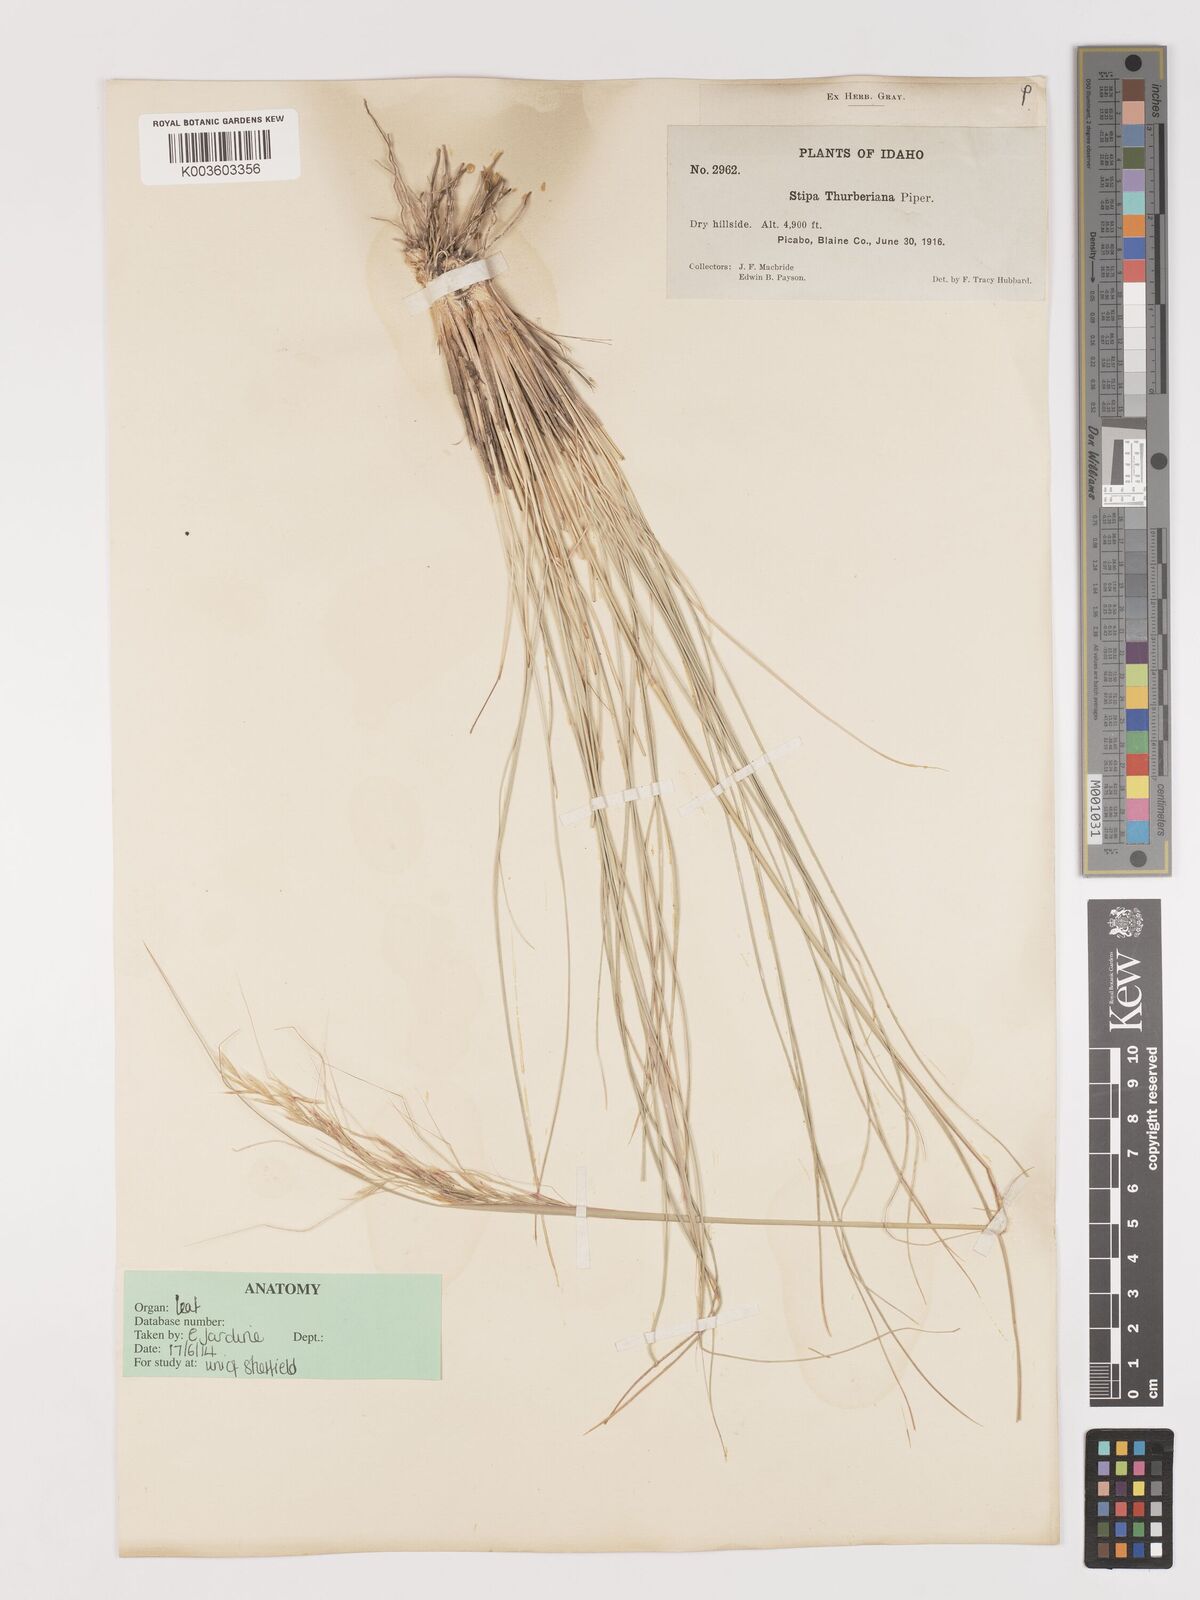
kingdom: Plantae
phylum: Tracheophyta
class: Liliopsida
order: Poales
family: Poaceae
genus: Eriocoma
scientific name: Eriocoma thurberiana
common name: Thurber's needlegrass
